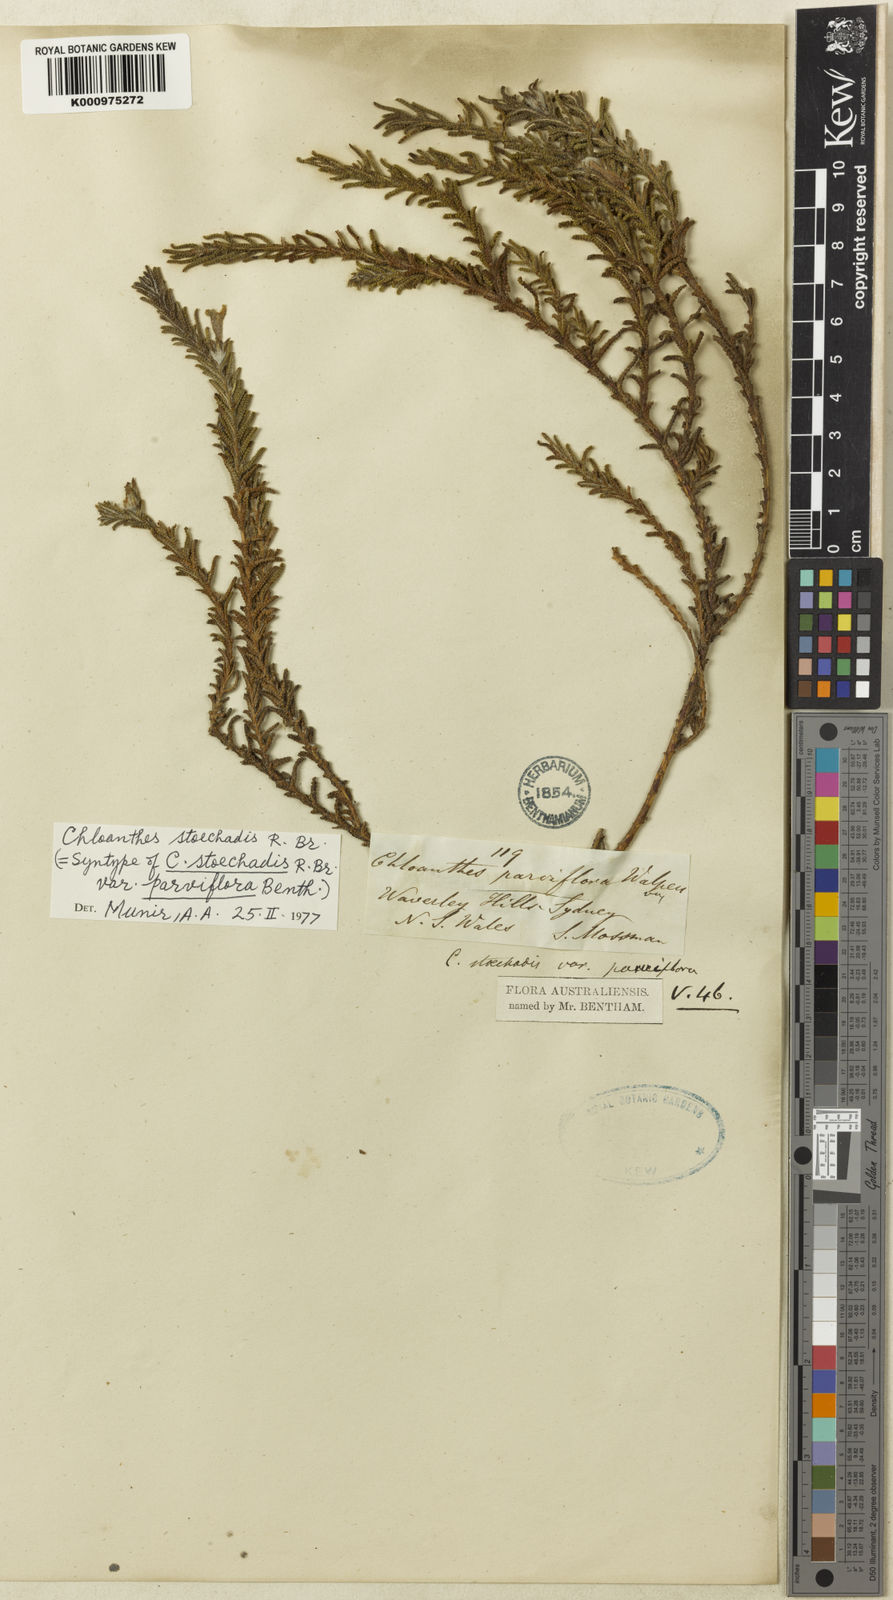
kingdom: Plantae
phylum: Tracheophyta
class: Magnoliopsida
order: Lamiales
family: Lamiaceae
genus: Chloanthes
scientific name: Chloanthes stoechadis
